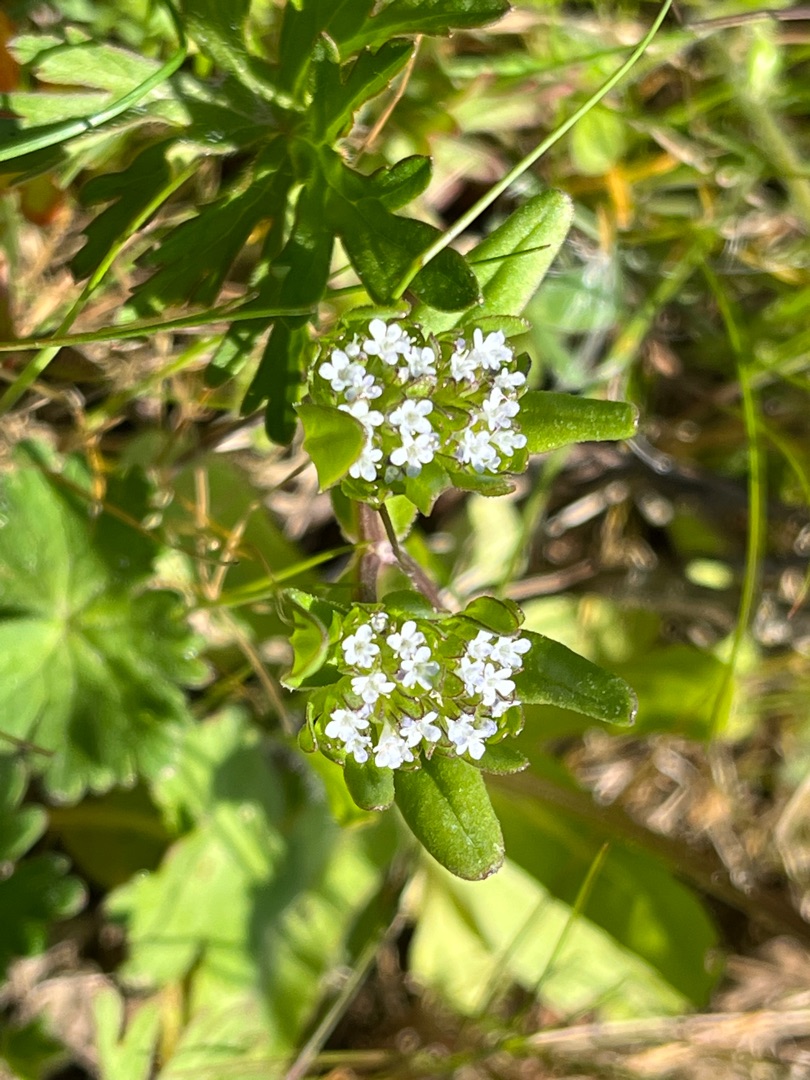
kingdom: Plantae
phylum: Tracheophyta
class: Magnoliopsida
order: Dipsacales
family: Caprifoliaceae
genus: Valerianella
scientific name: Valerianella locusta
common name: Tandfri vårsalat
